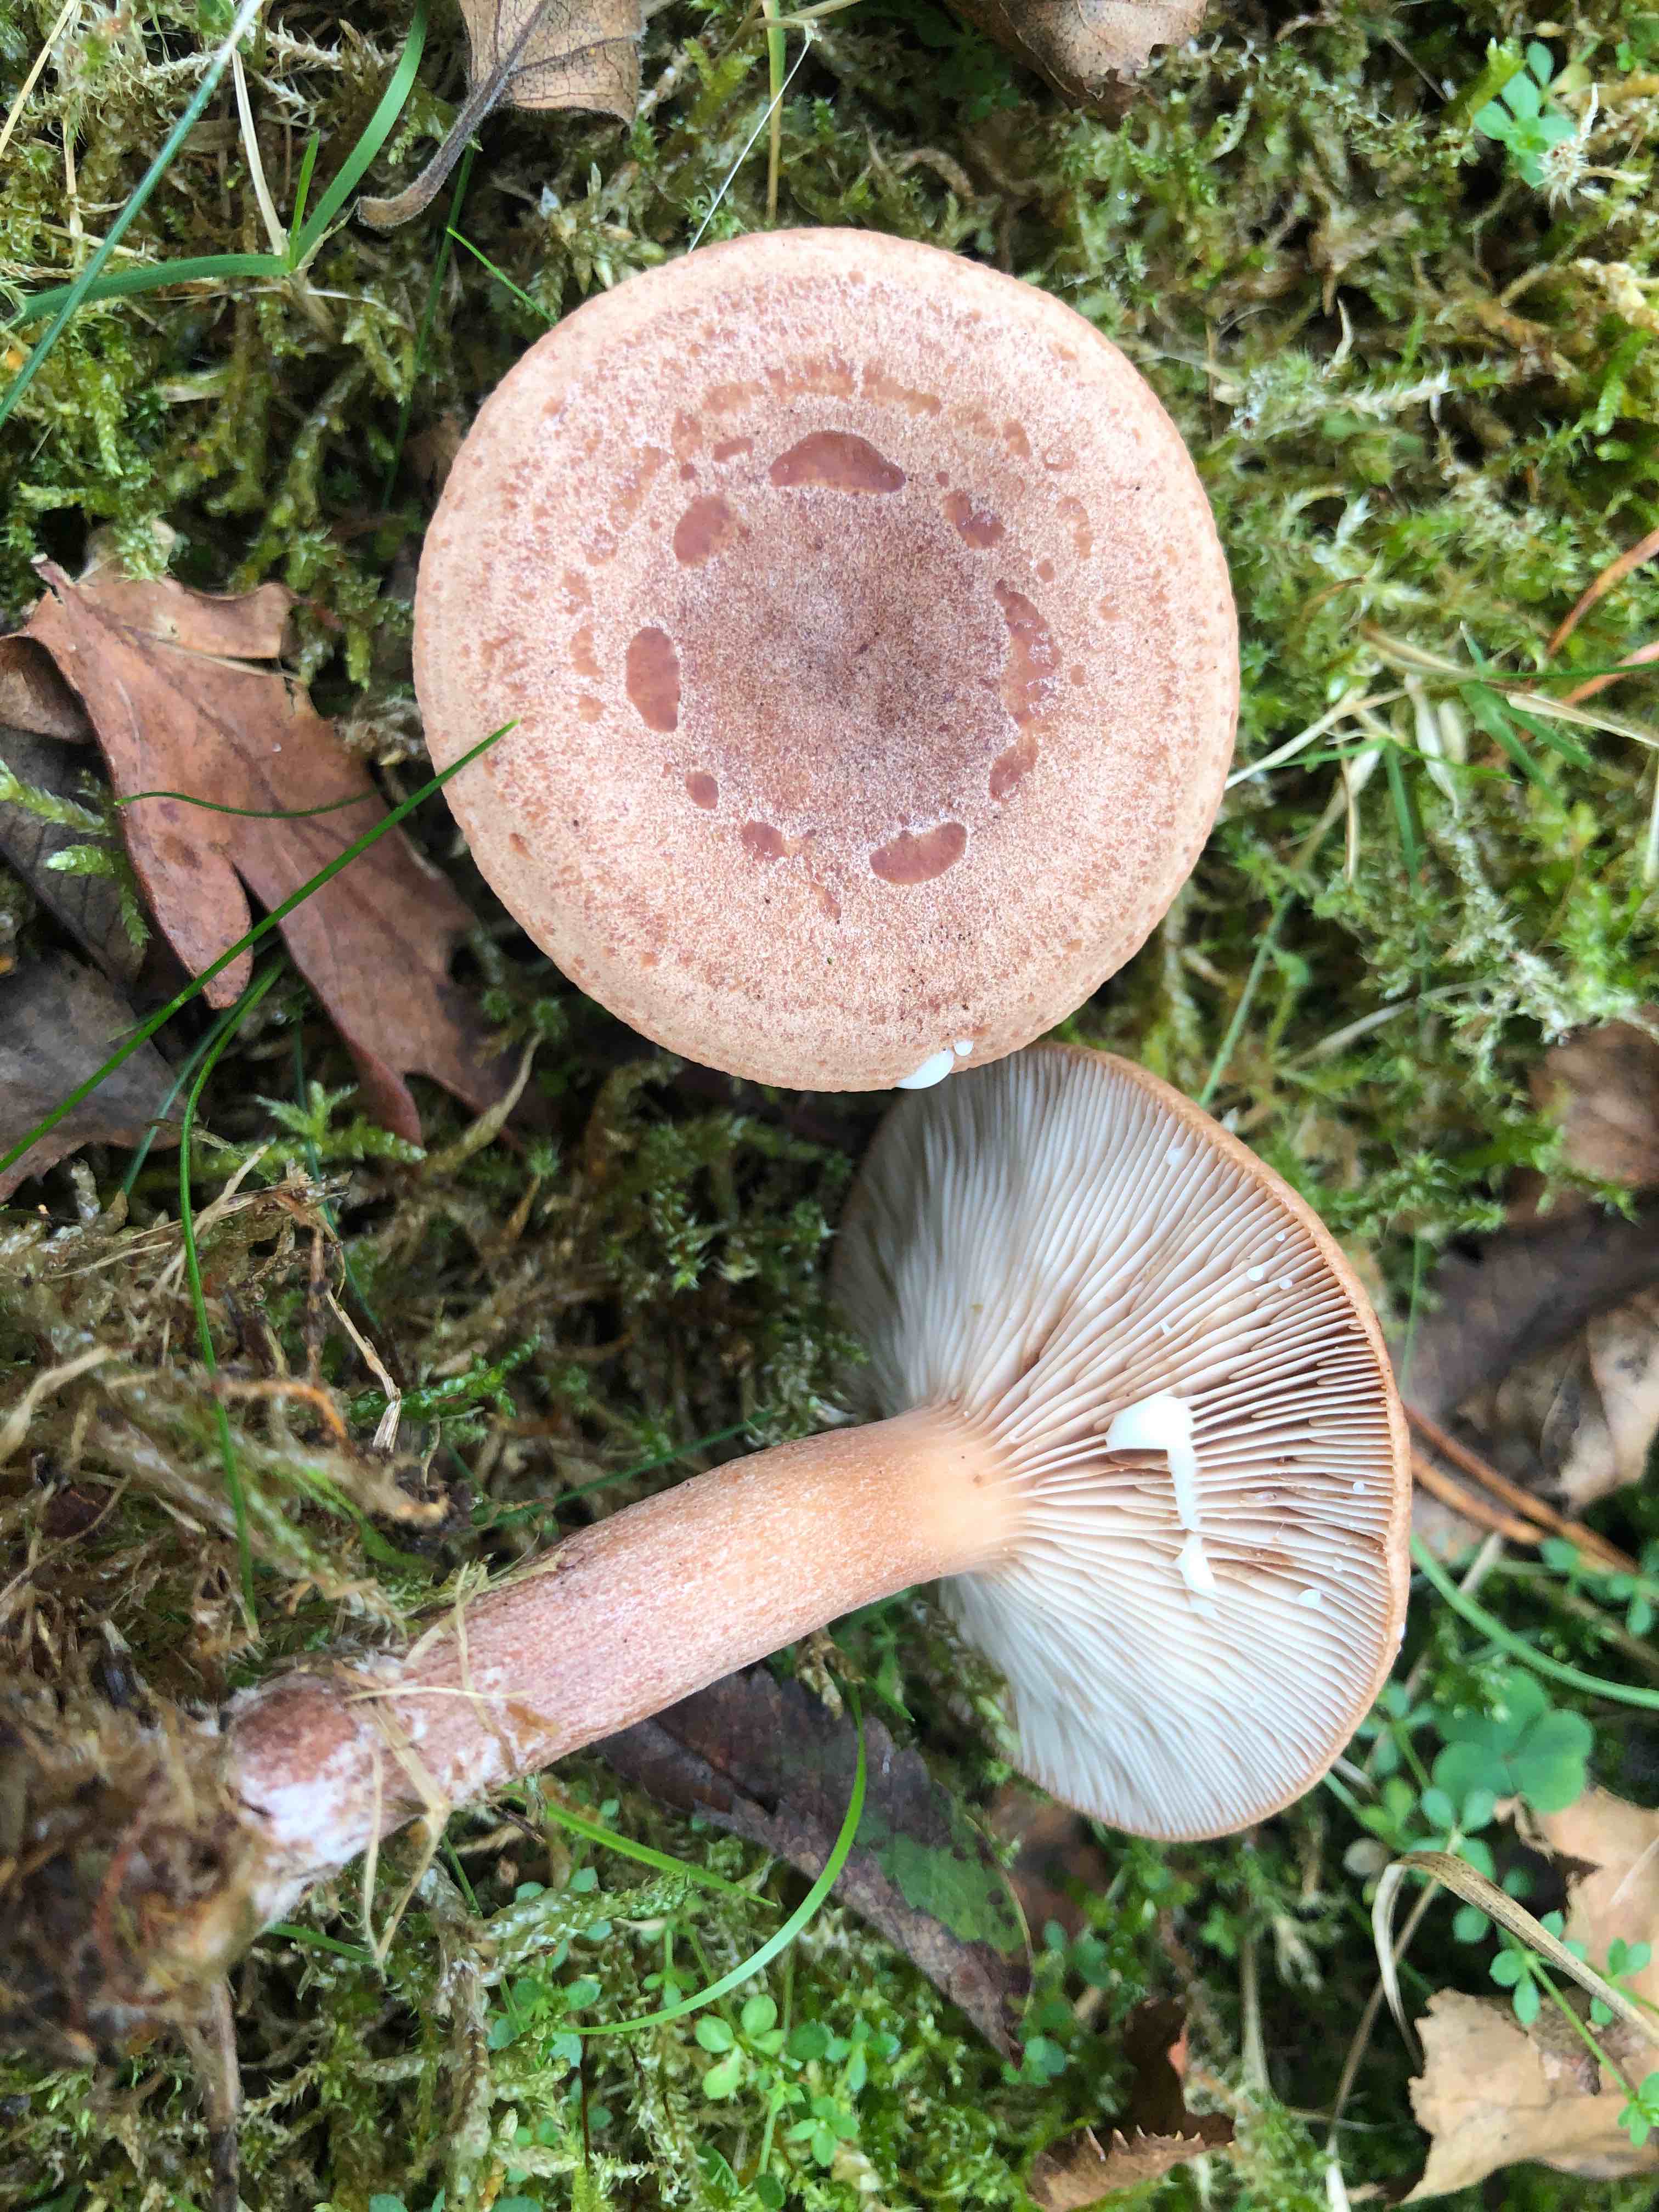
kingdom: Fungi
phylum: Basidiomycota
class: Agaricomycetes
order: Russulales
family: Russulaceae
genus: Lactarius
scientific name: Lactarius quietus
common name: ege-mælkehat
